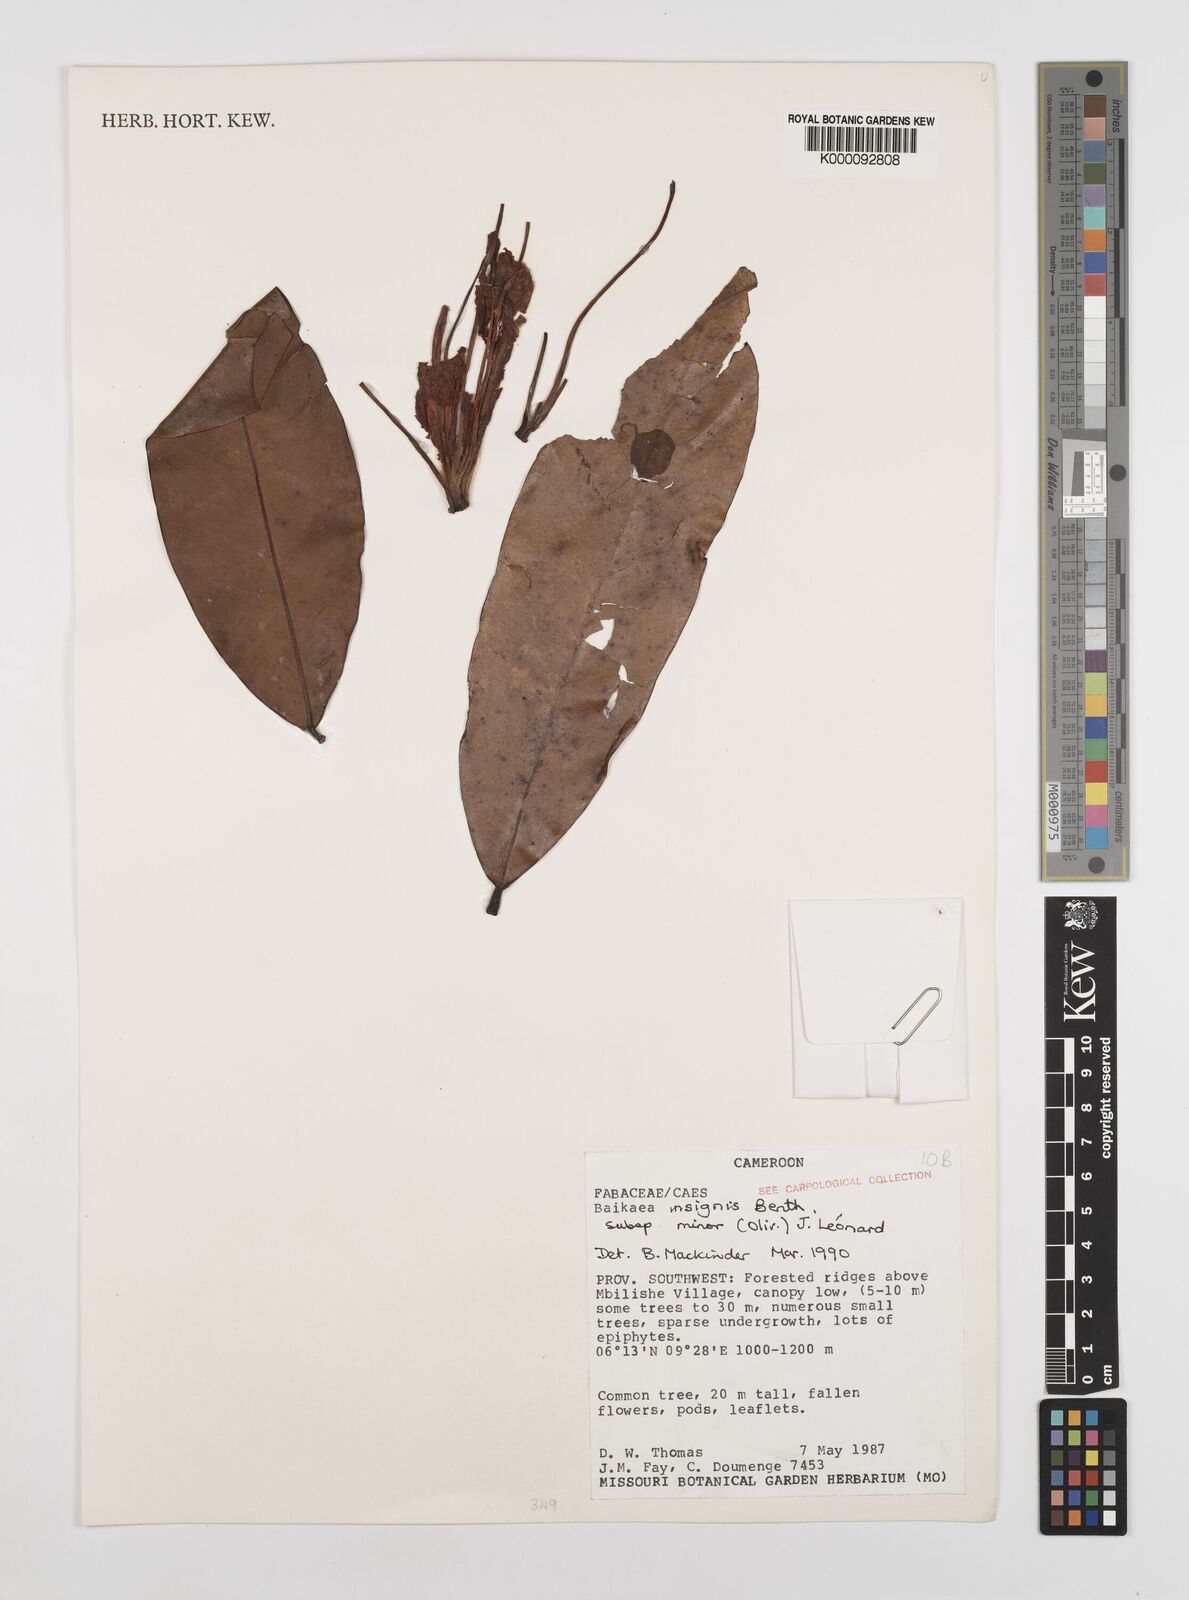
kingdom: Plantae
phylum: Tracheophyta
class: Magnoliopsida
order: Fabales
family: Fabaceae
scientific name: Fabaceae
